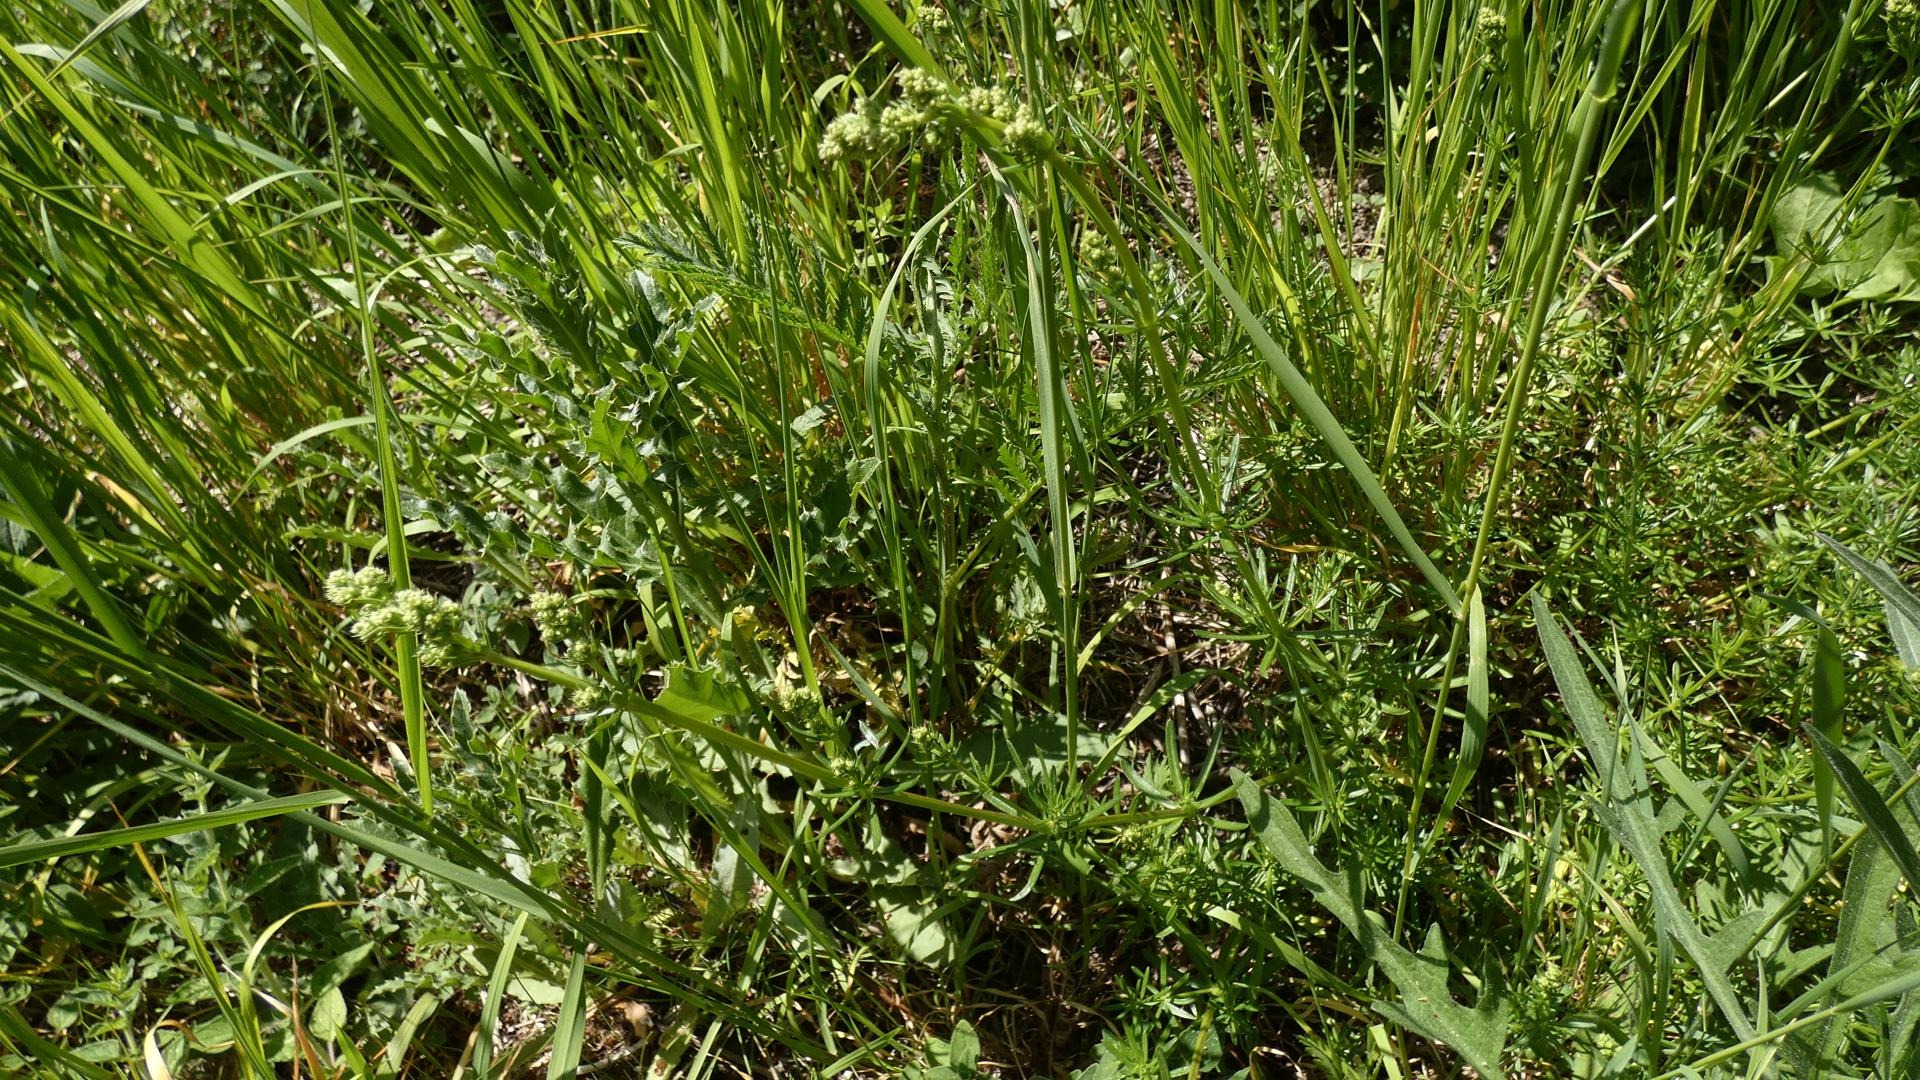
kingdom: Plantae
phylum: Tracheophyta
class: Magnoliopsida
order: Gentianales
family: Rubiaceae
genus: Galium
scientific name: Galium mollugo
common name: Hvid snerre
